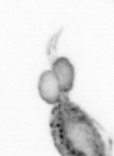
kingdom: Animalia
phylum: Arthropoda
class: Copepoda
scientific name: Copepoda
